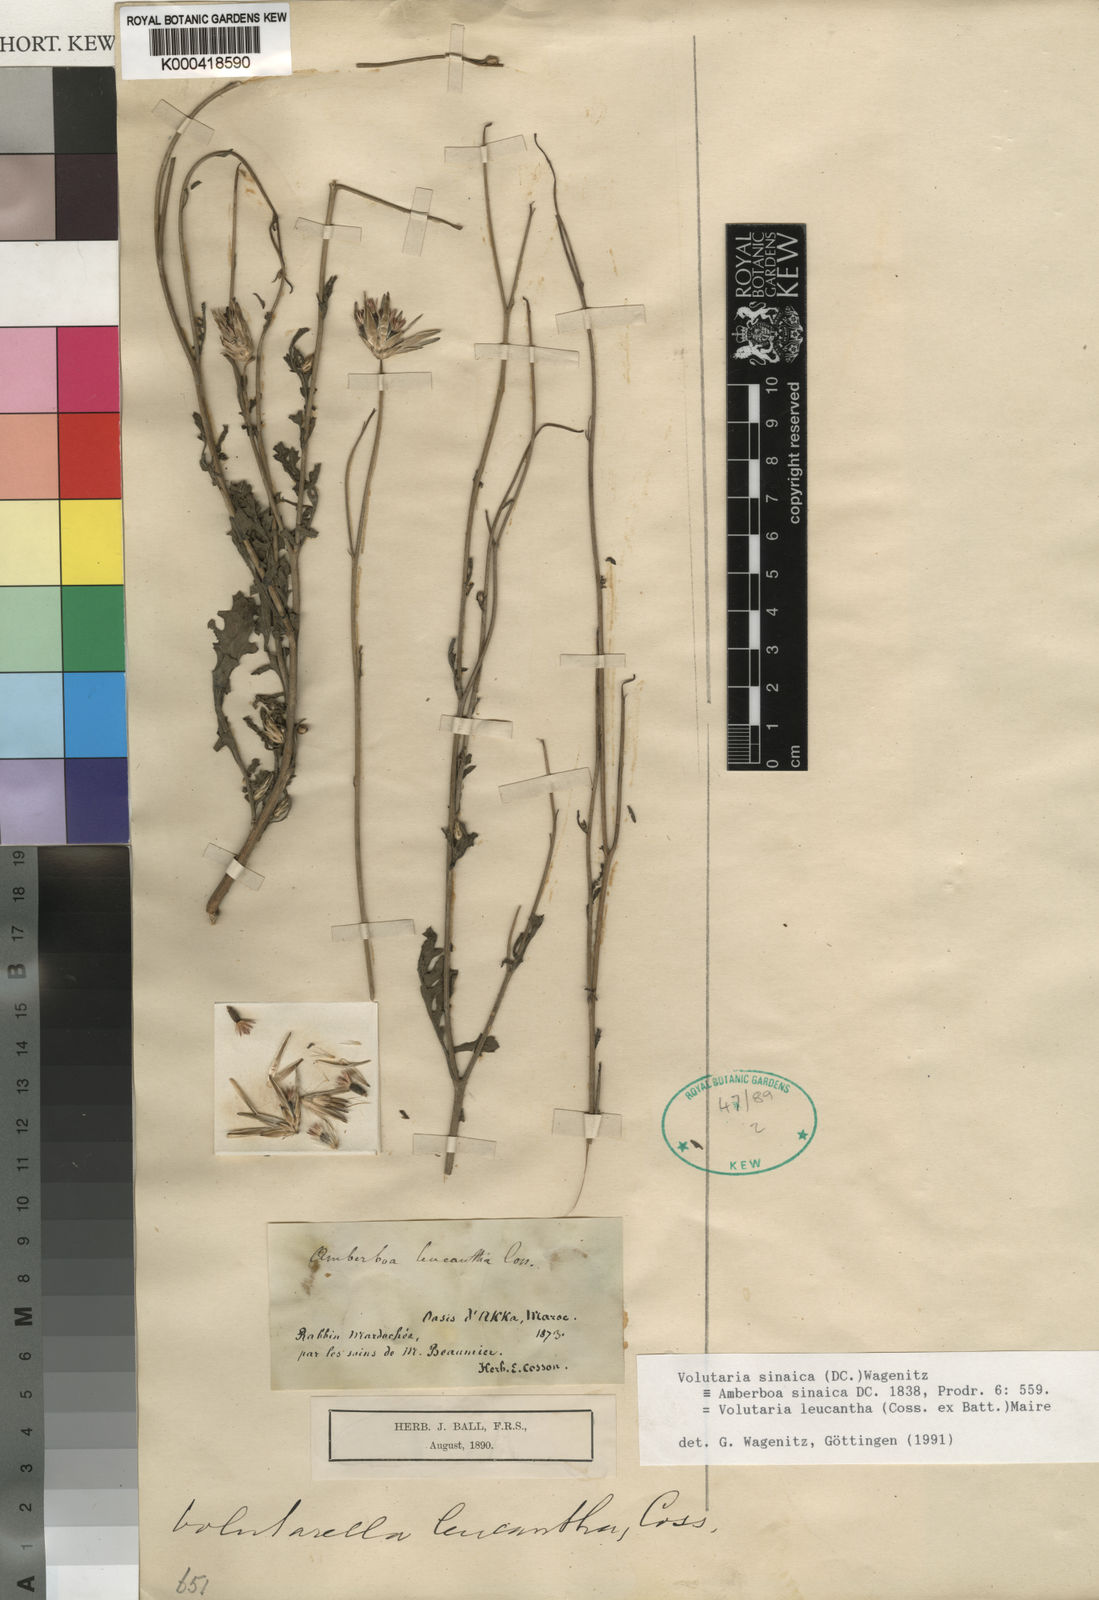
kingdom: Plantae
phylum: Tracheophyta
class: Magnoliopsida
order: Asterales
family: Asteraceae
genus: Volutaria
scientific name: Volutaria sinaica
